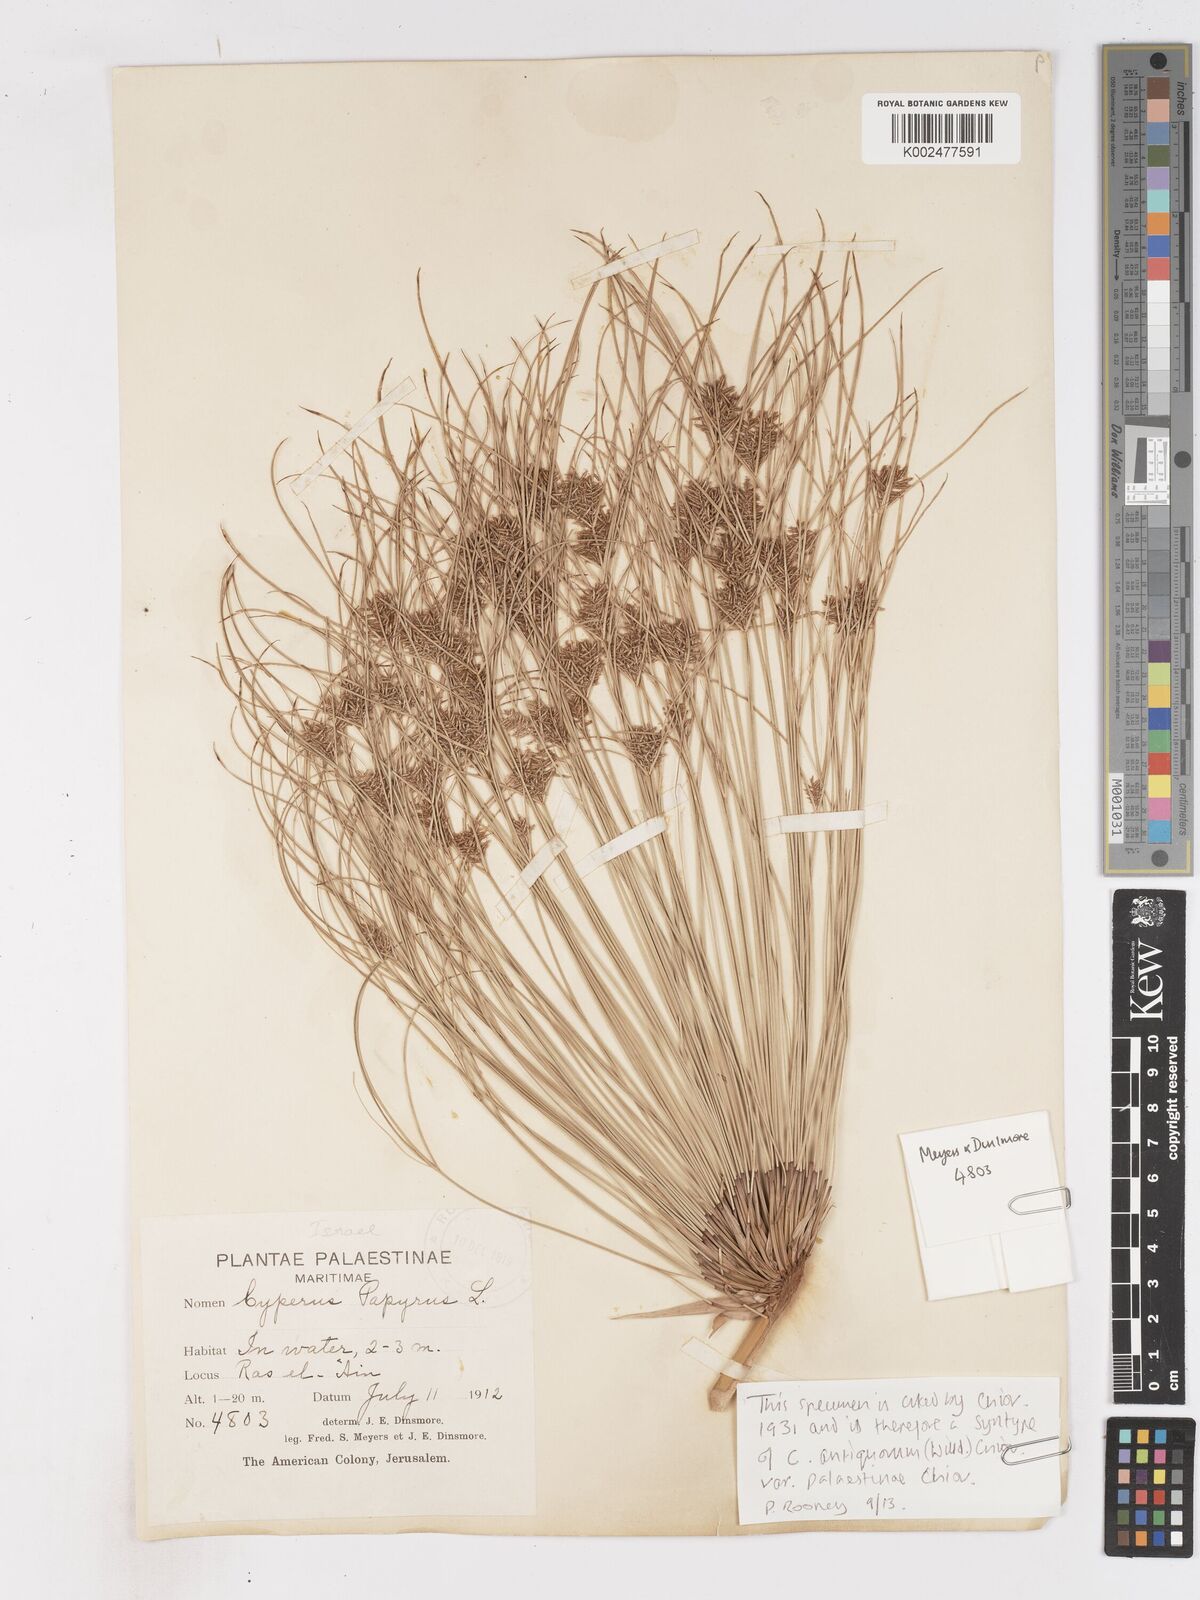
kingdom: Plantae
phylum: Tracheophyta
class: Liliopsida
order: Poales
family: Cyperaceae
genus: Cyperus
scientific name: Cyperus papyrus
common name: Papyrus
